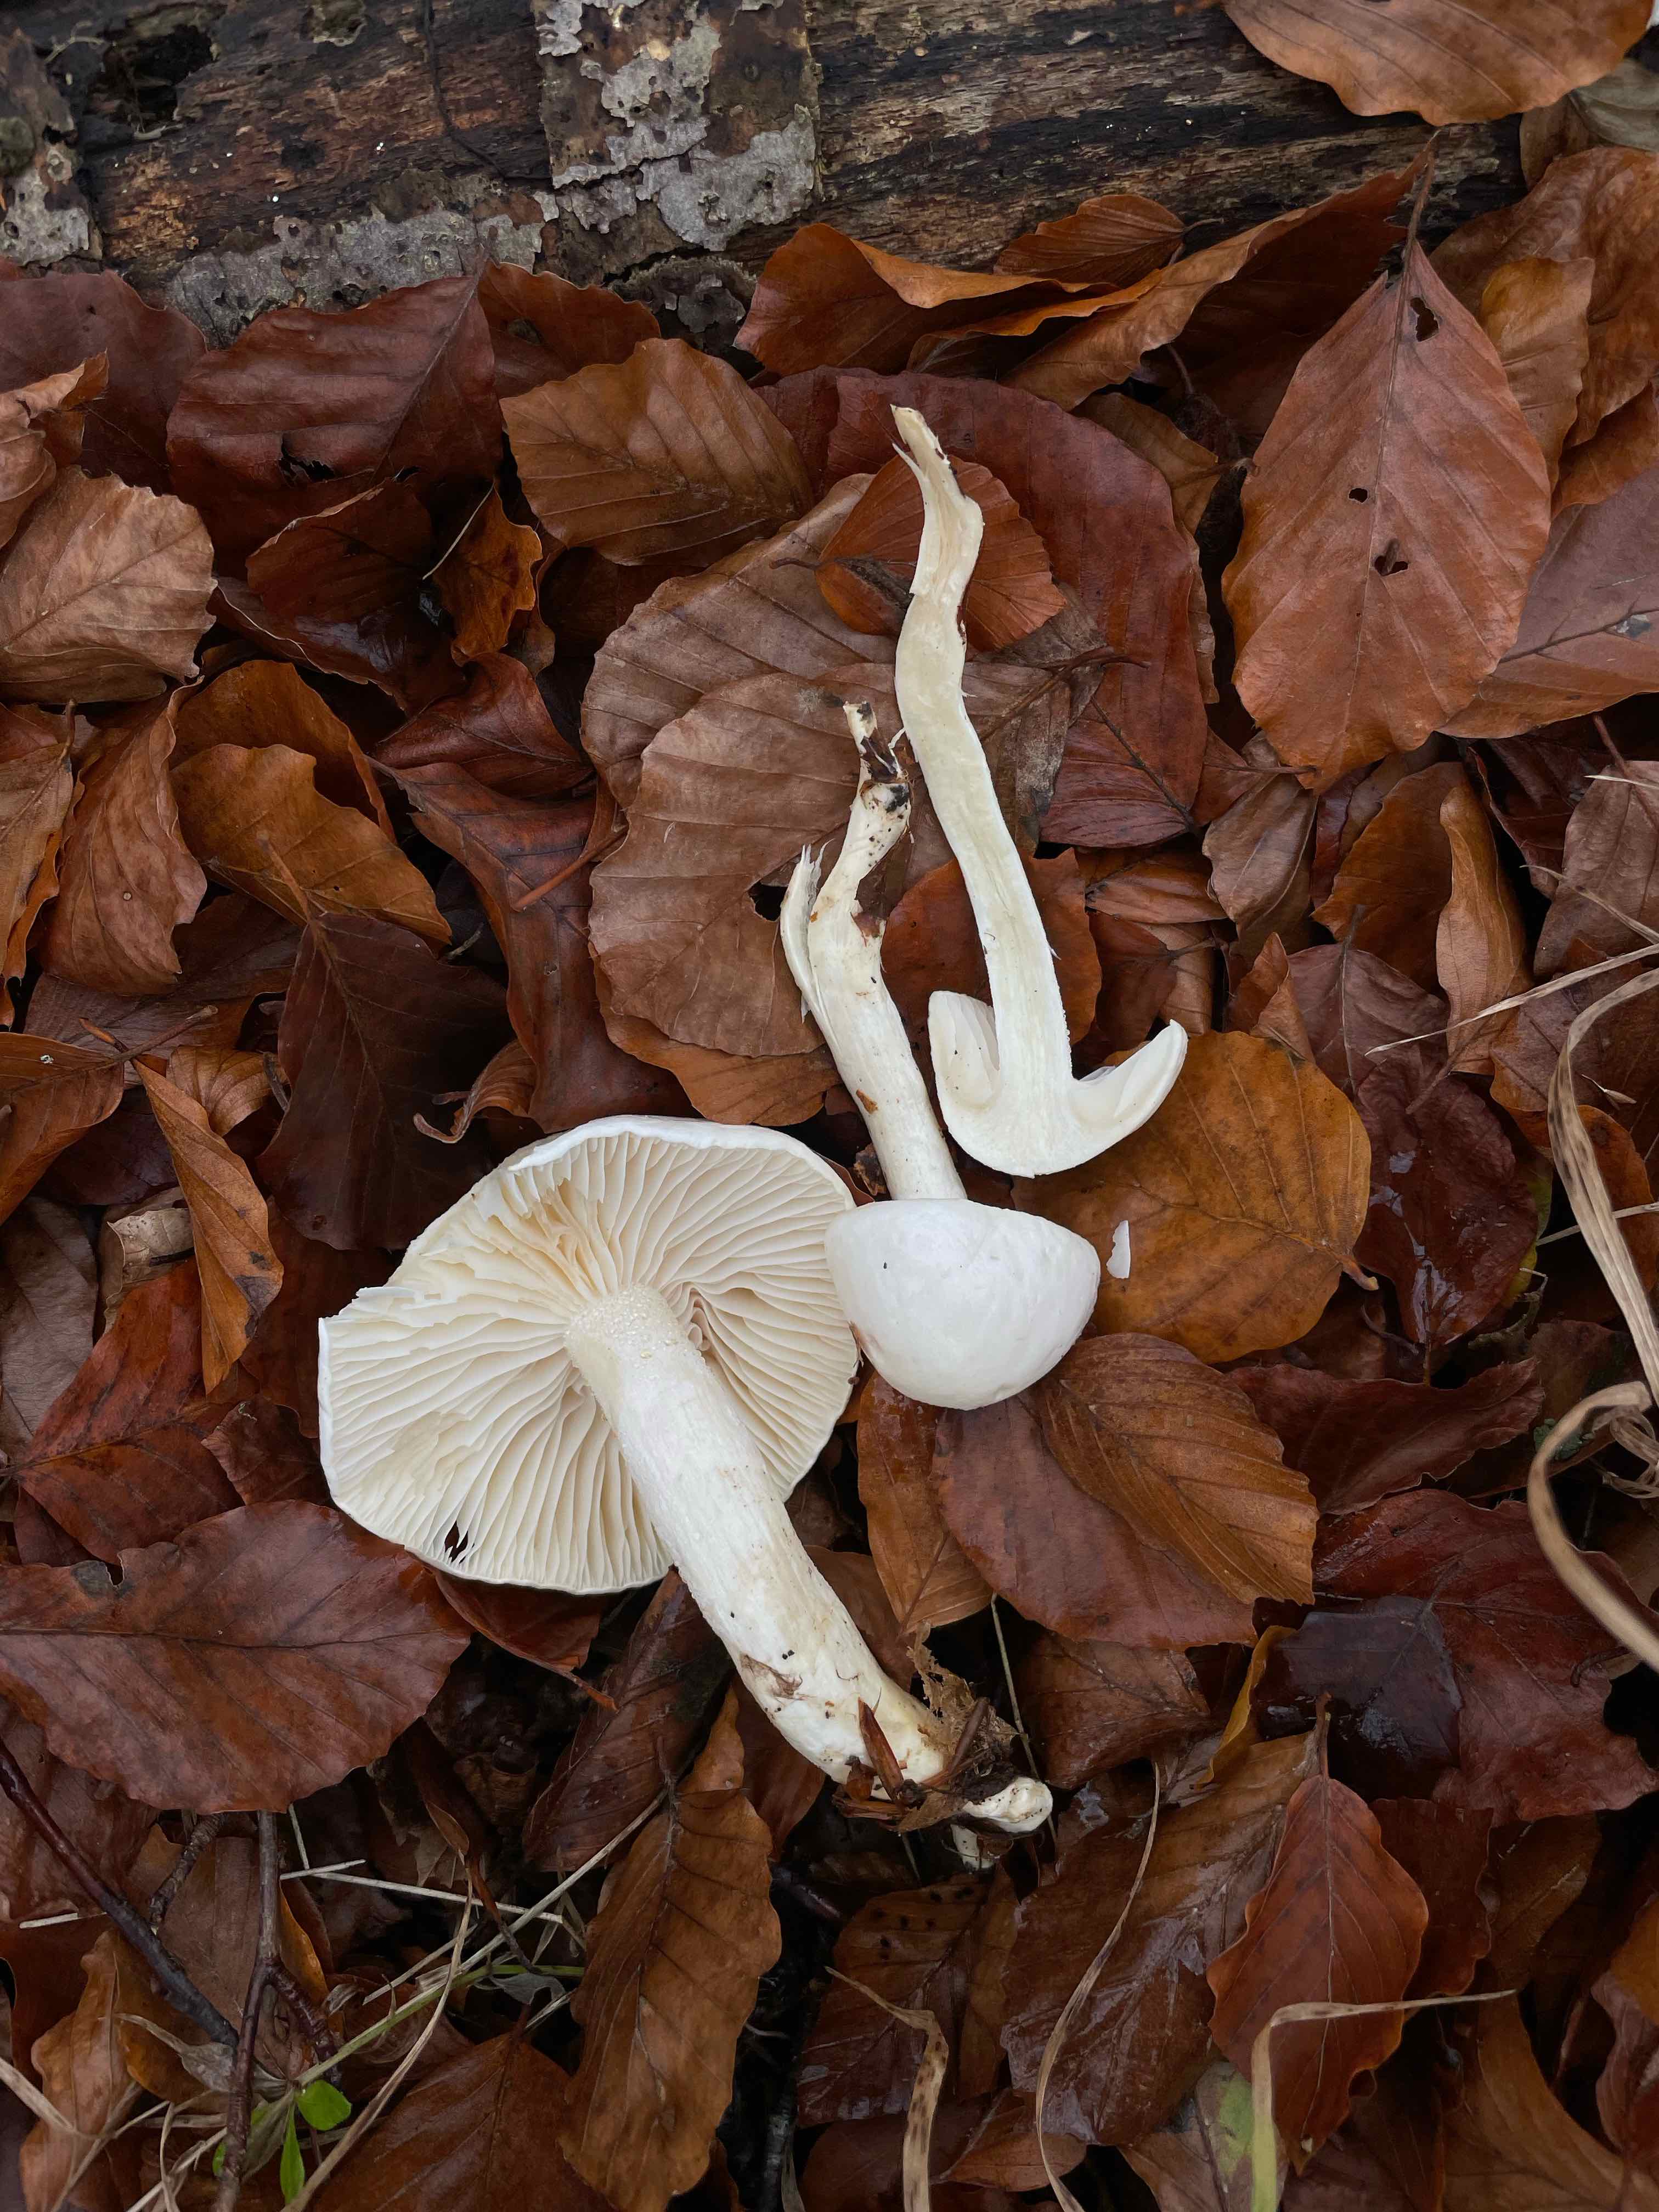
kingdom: Fungi
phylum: Basidiomycota
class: Agaricomycetes
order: Agaricales
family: Hygrophoraceae
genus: Hygrophorus
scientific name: Hygrophorus eburneus
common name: elfenbens-sneglehat
